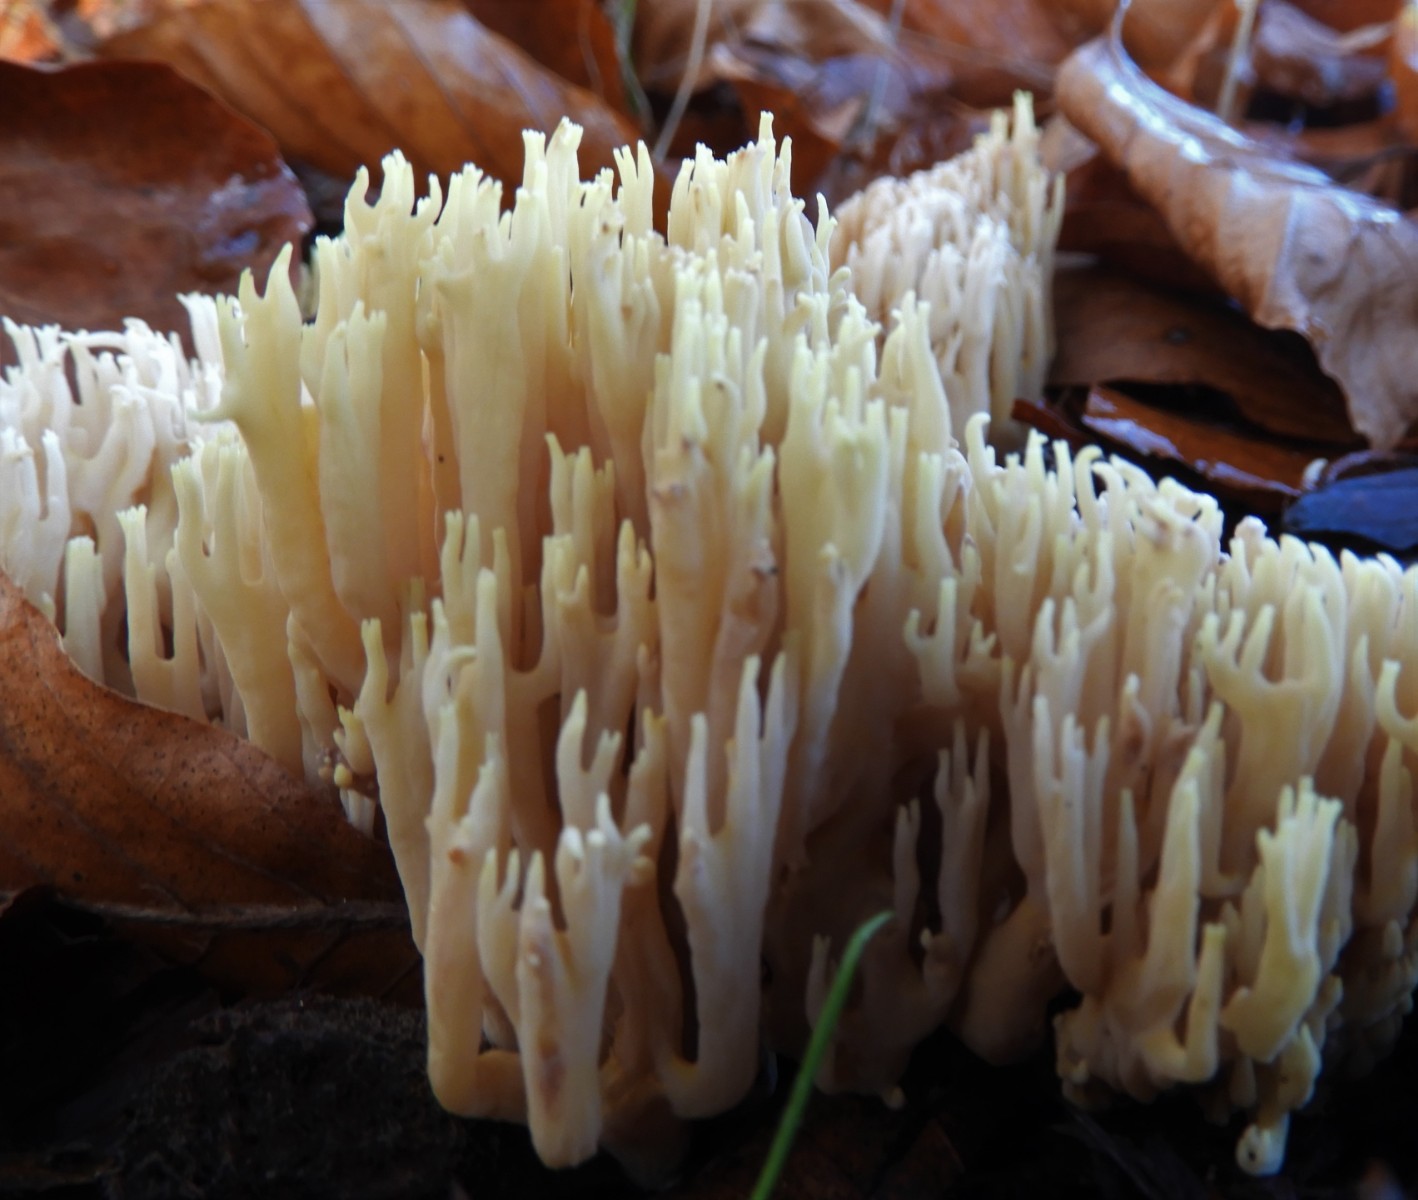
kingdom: Fungi
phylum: Basidiomycota
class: Agaricomycetes
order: Gomphales
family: Gomphaceae
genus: Ramaria
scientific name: Ramaria stricta
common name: rank koralsvamp
